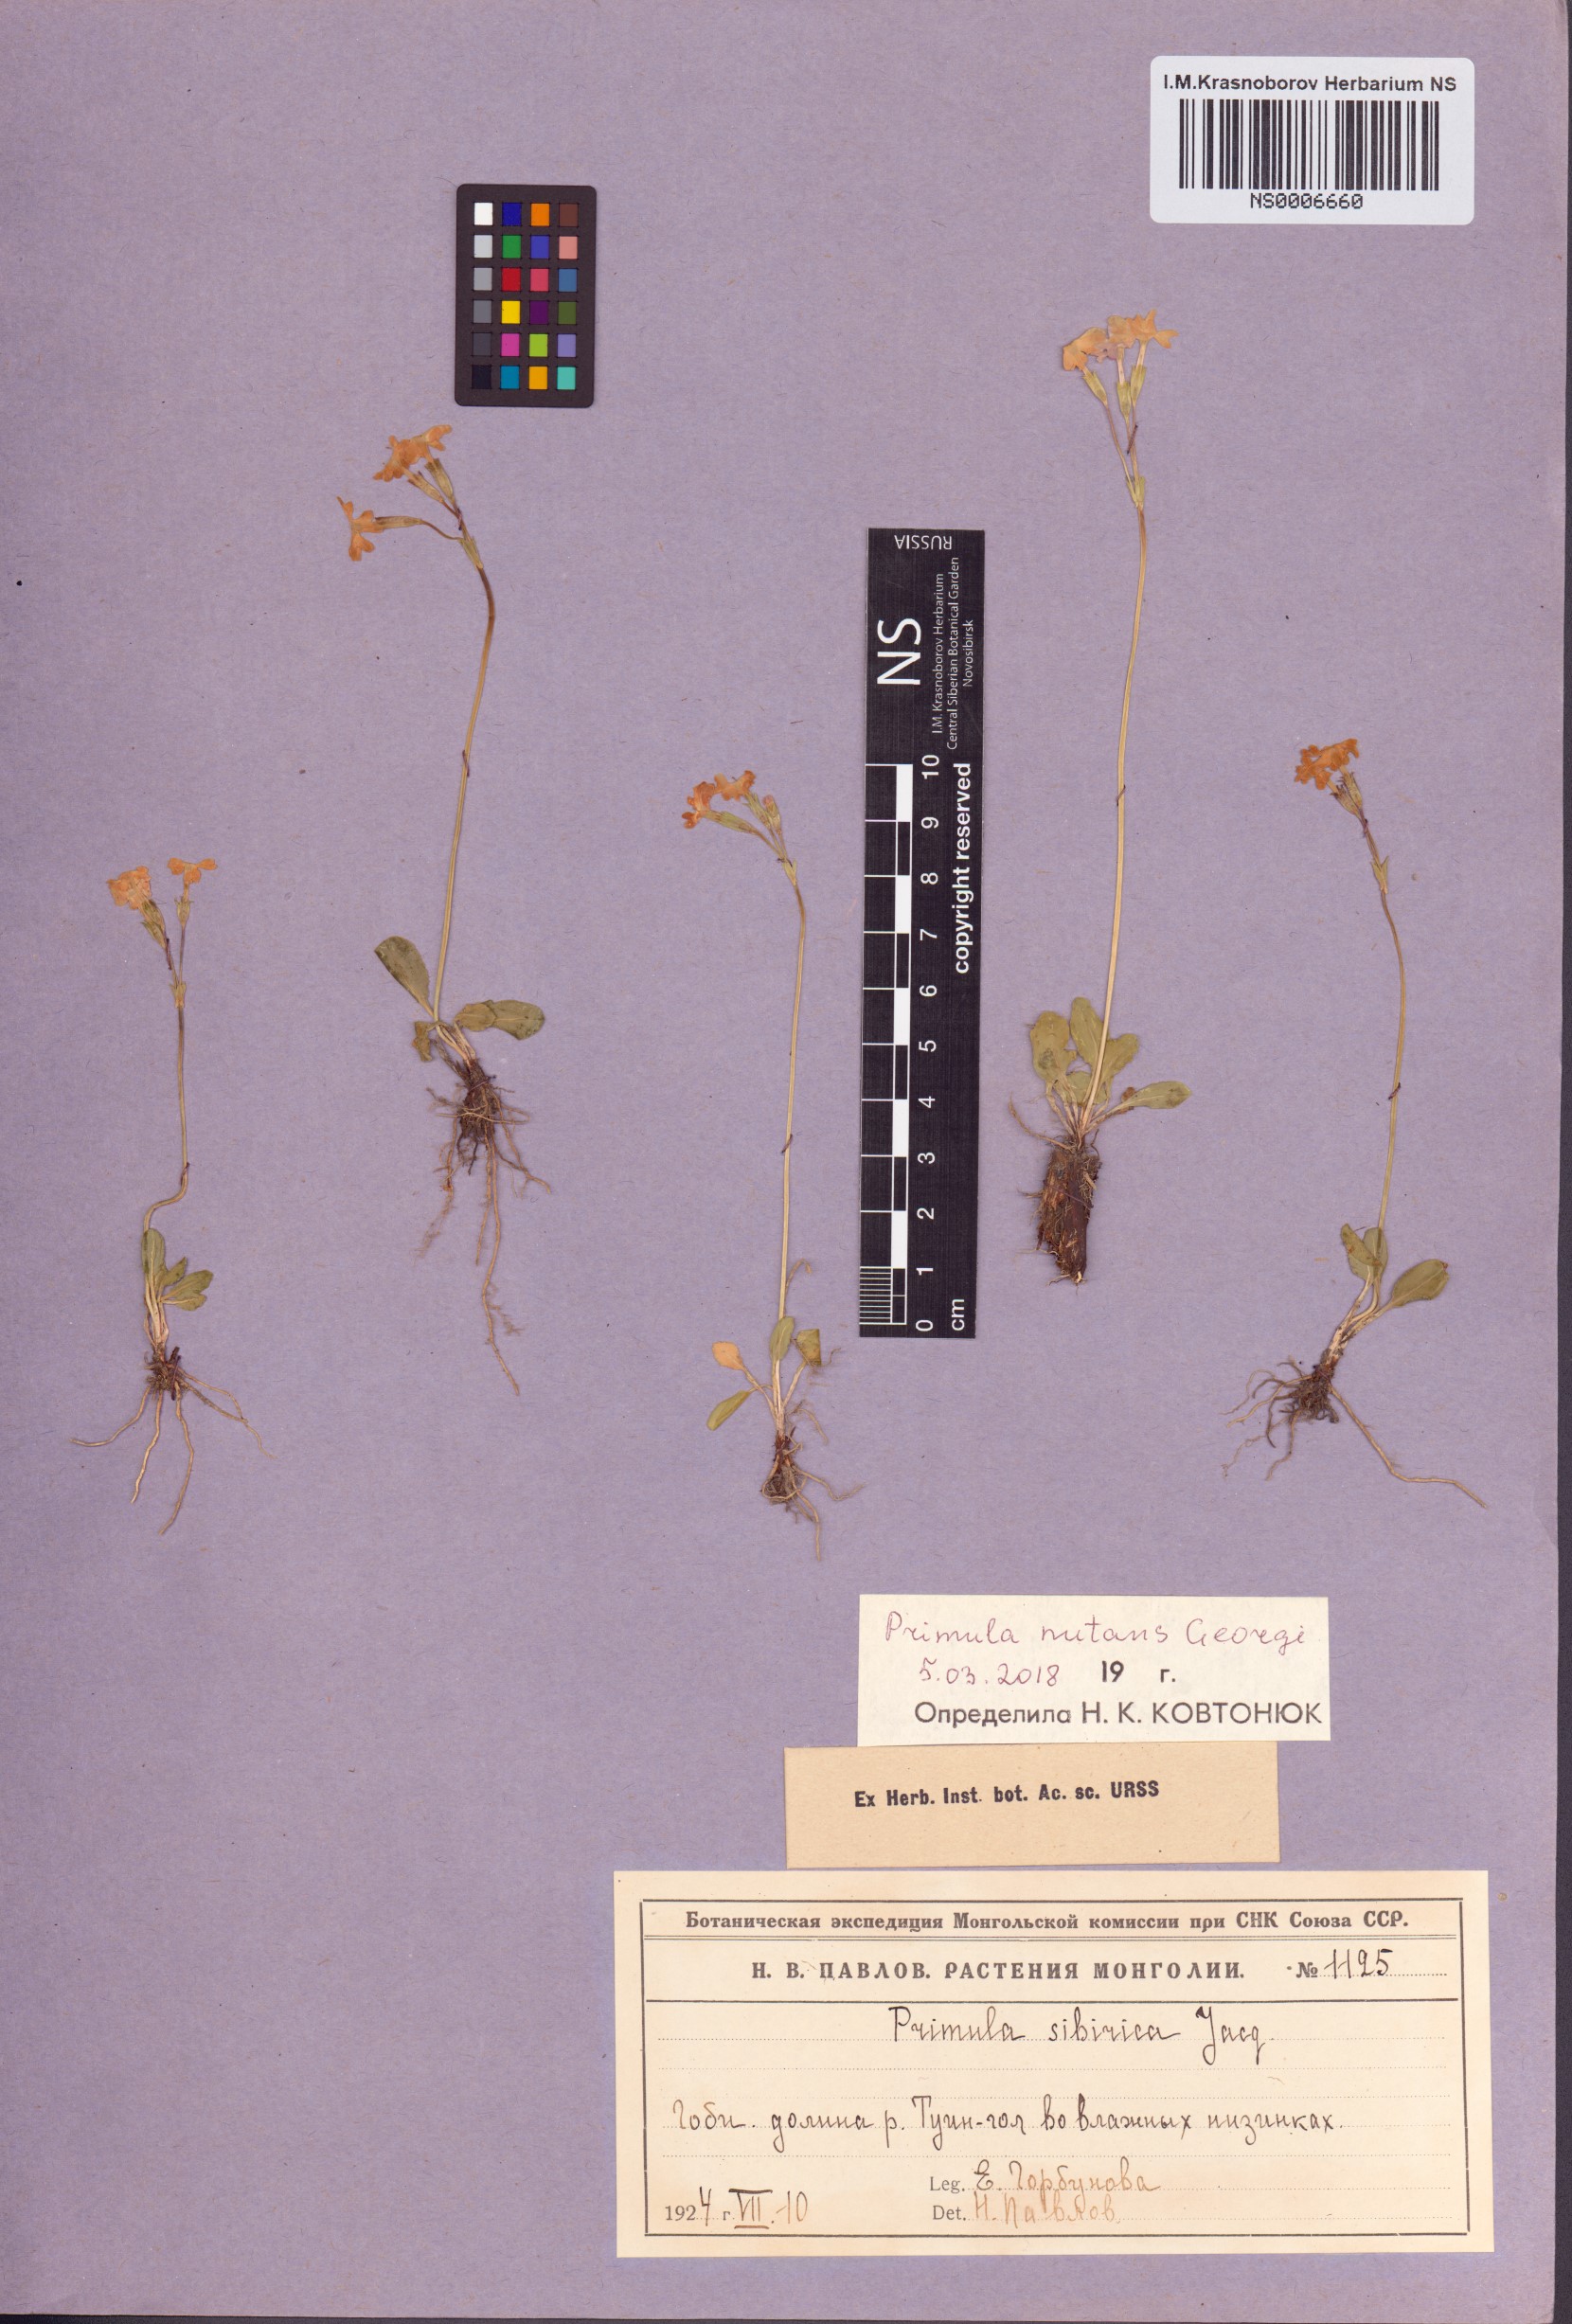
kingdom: Plantae
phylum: Tracheophyta
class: Magnoliopsida
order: Ericales
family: Primulaceae
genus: Primula
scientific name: Primula nutans
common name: Siberian primrose
